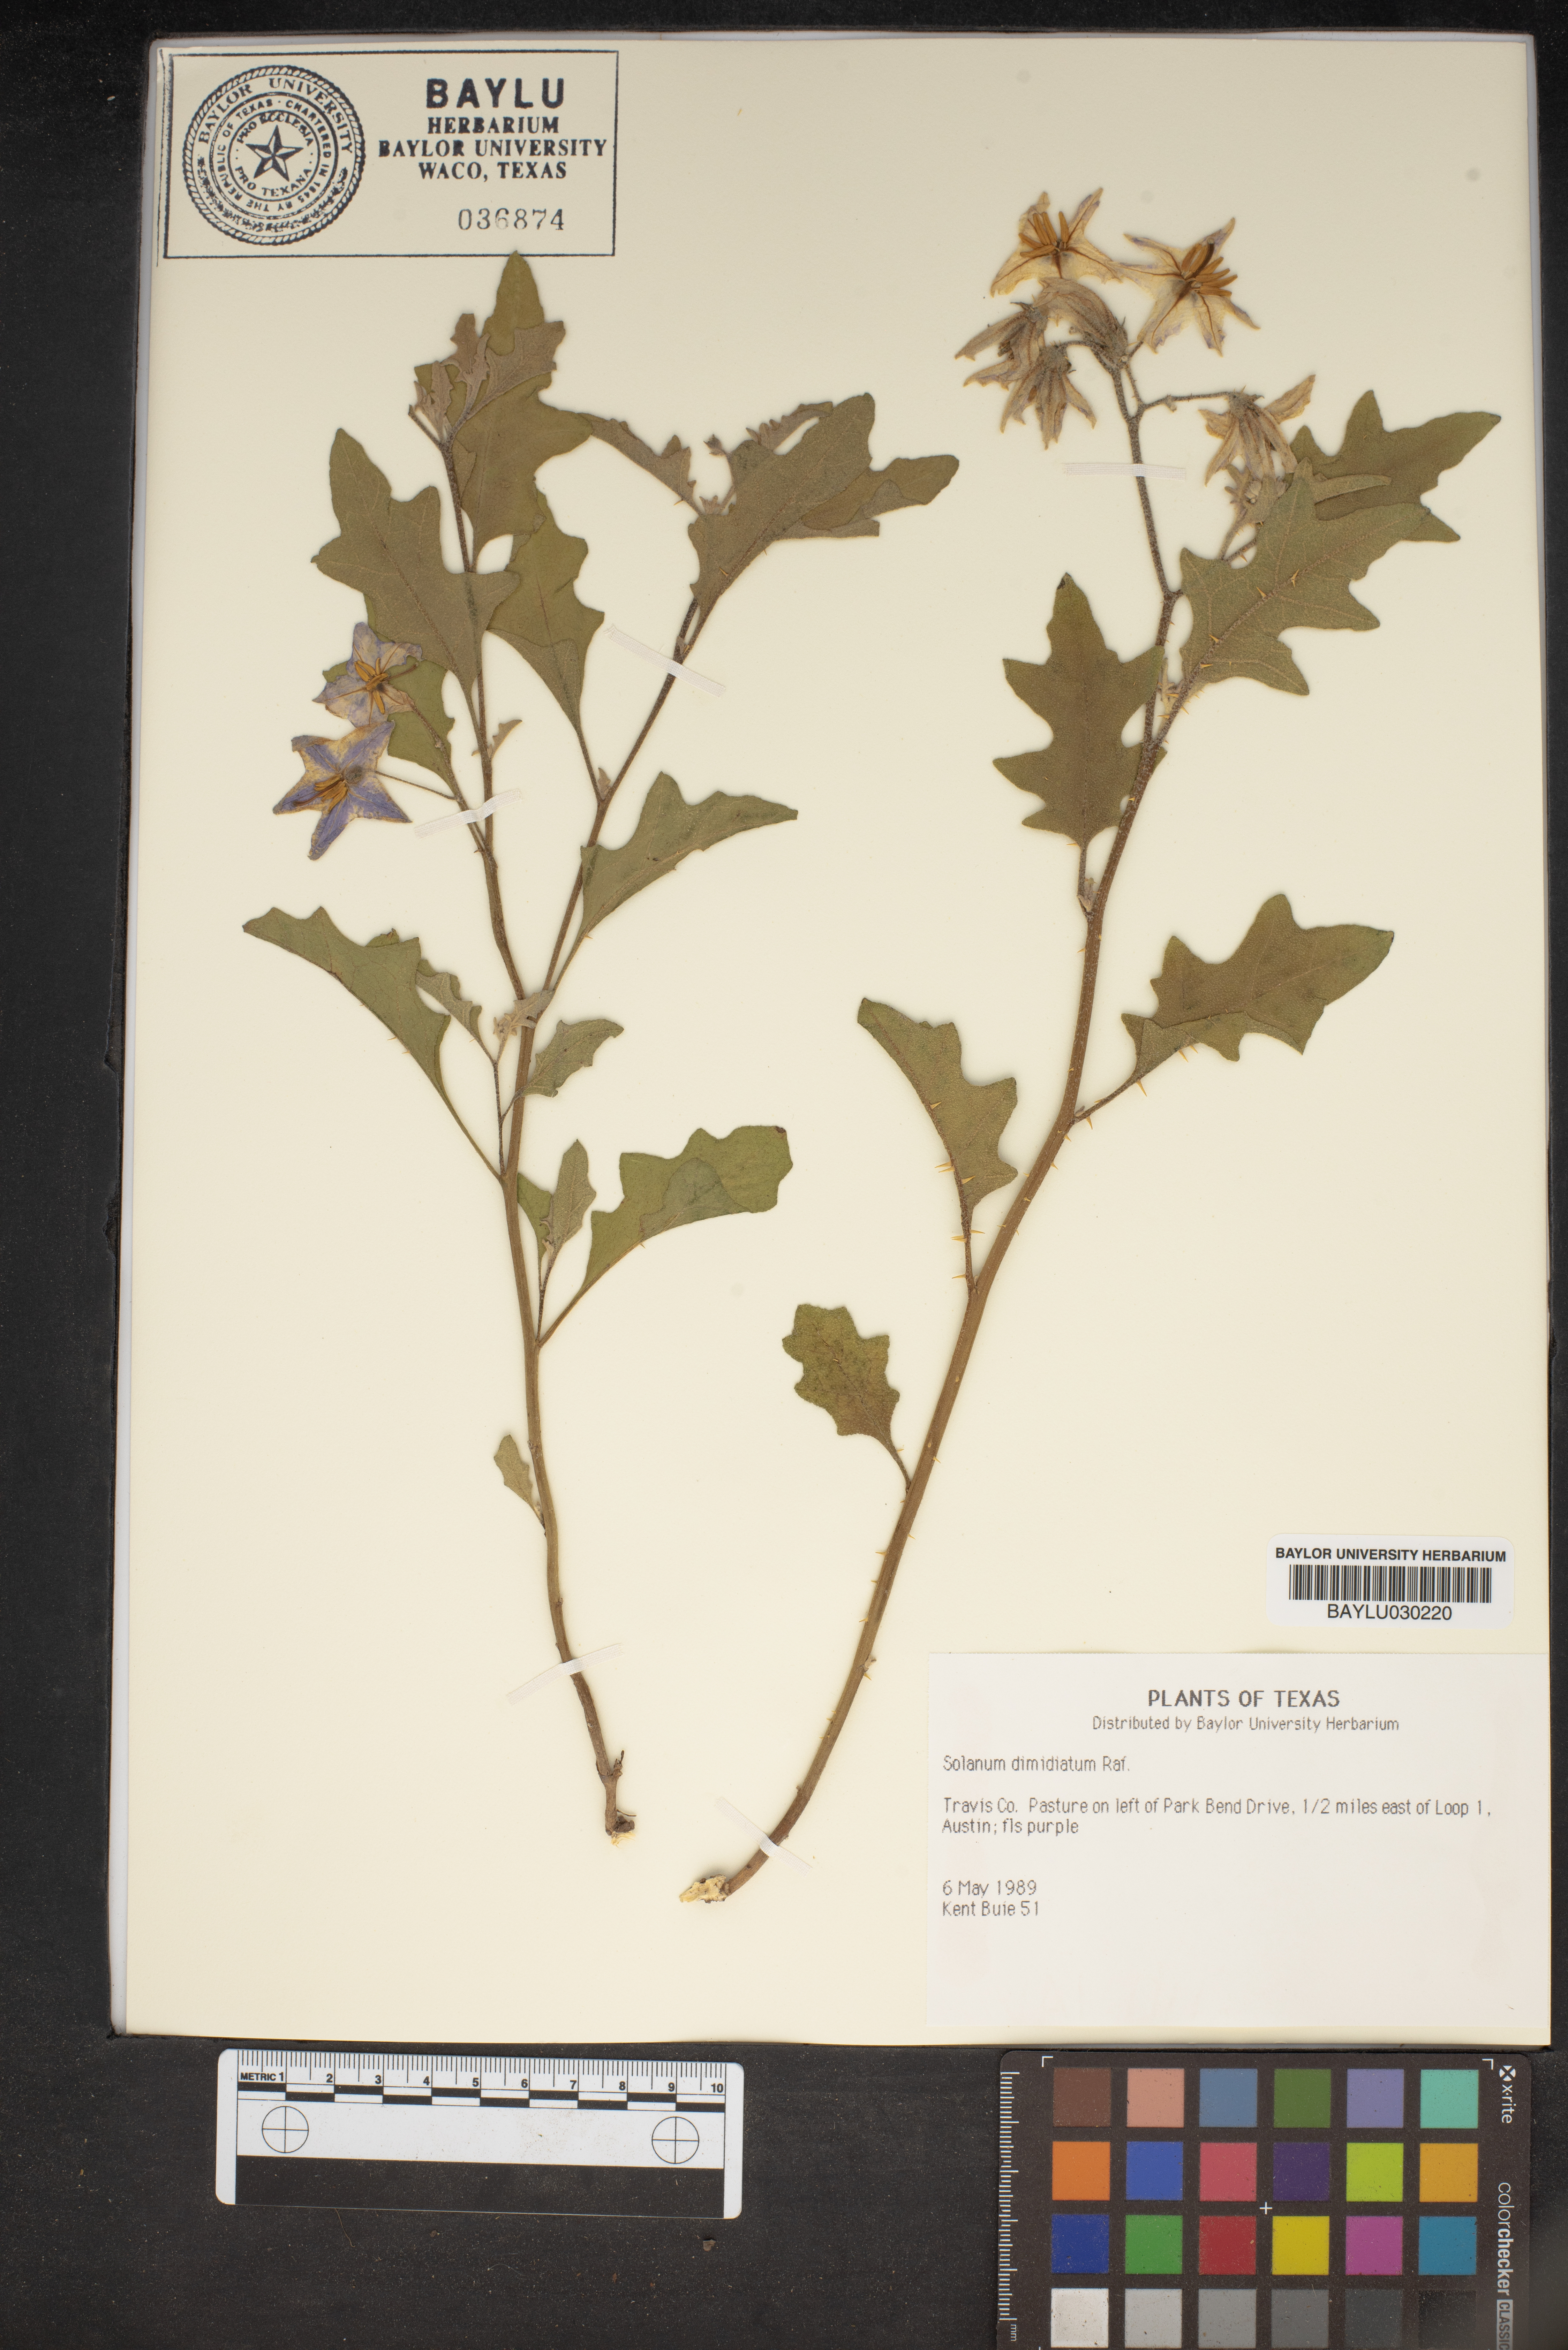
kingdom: Plantae
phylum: Tracheophyta
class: Magnoliopsida
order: Solanales
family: Solanaceae
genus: Solanum
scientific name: Solanum dimidiatum
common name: Carolina horse-nettle
